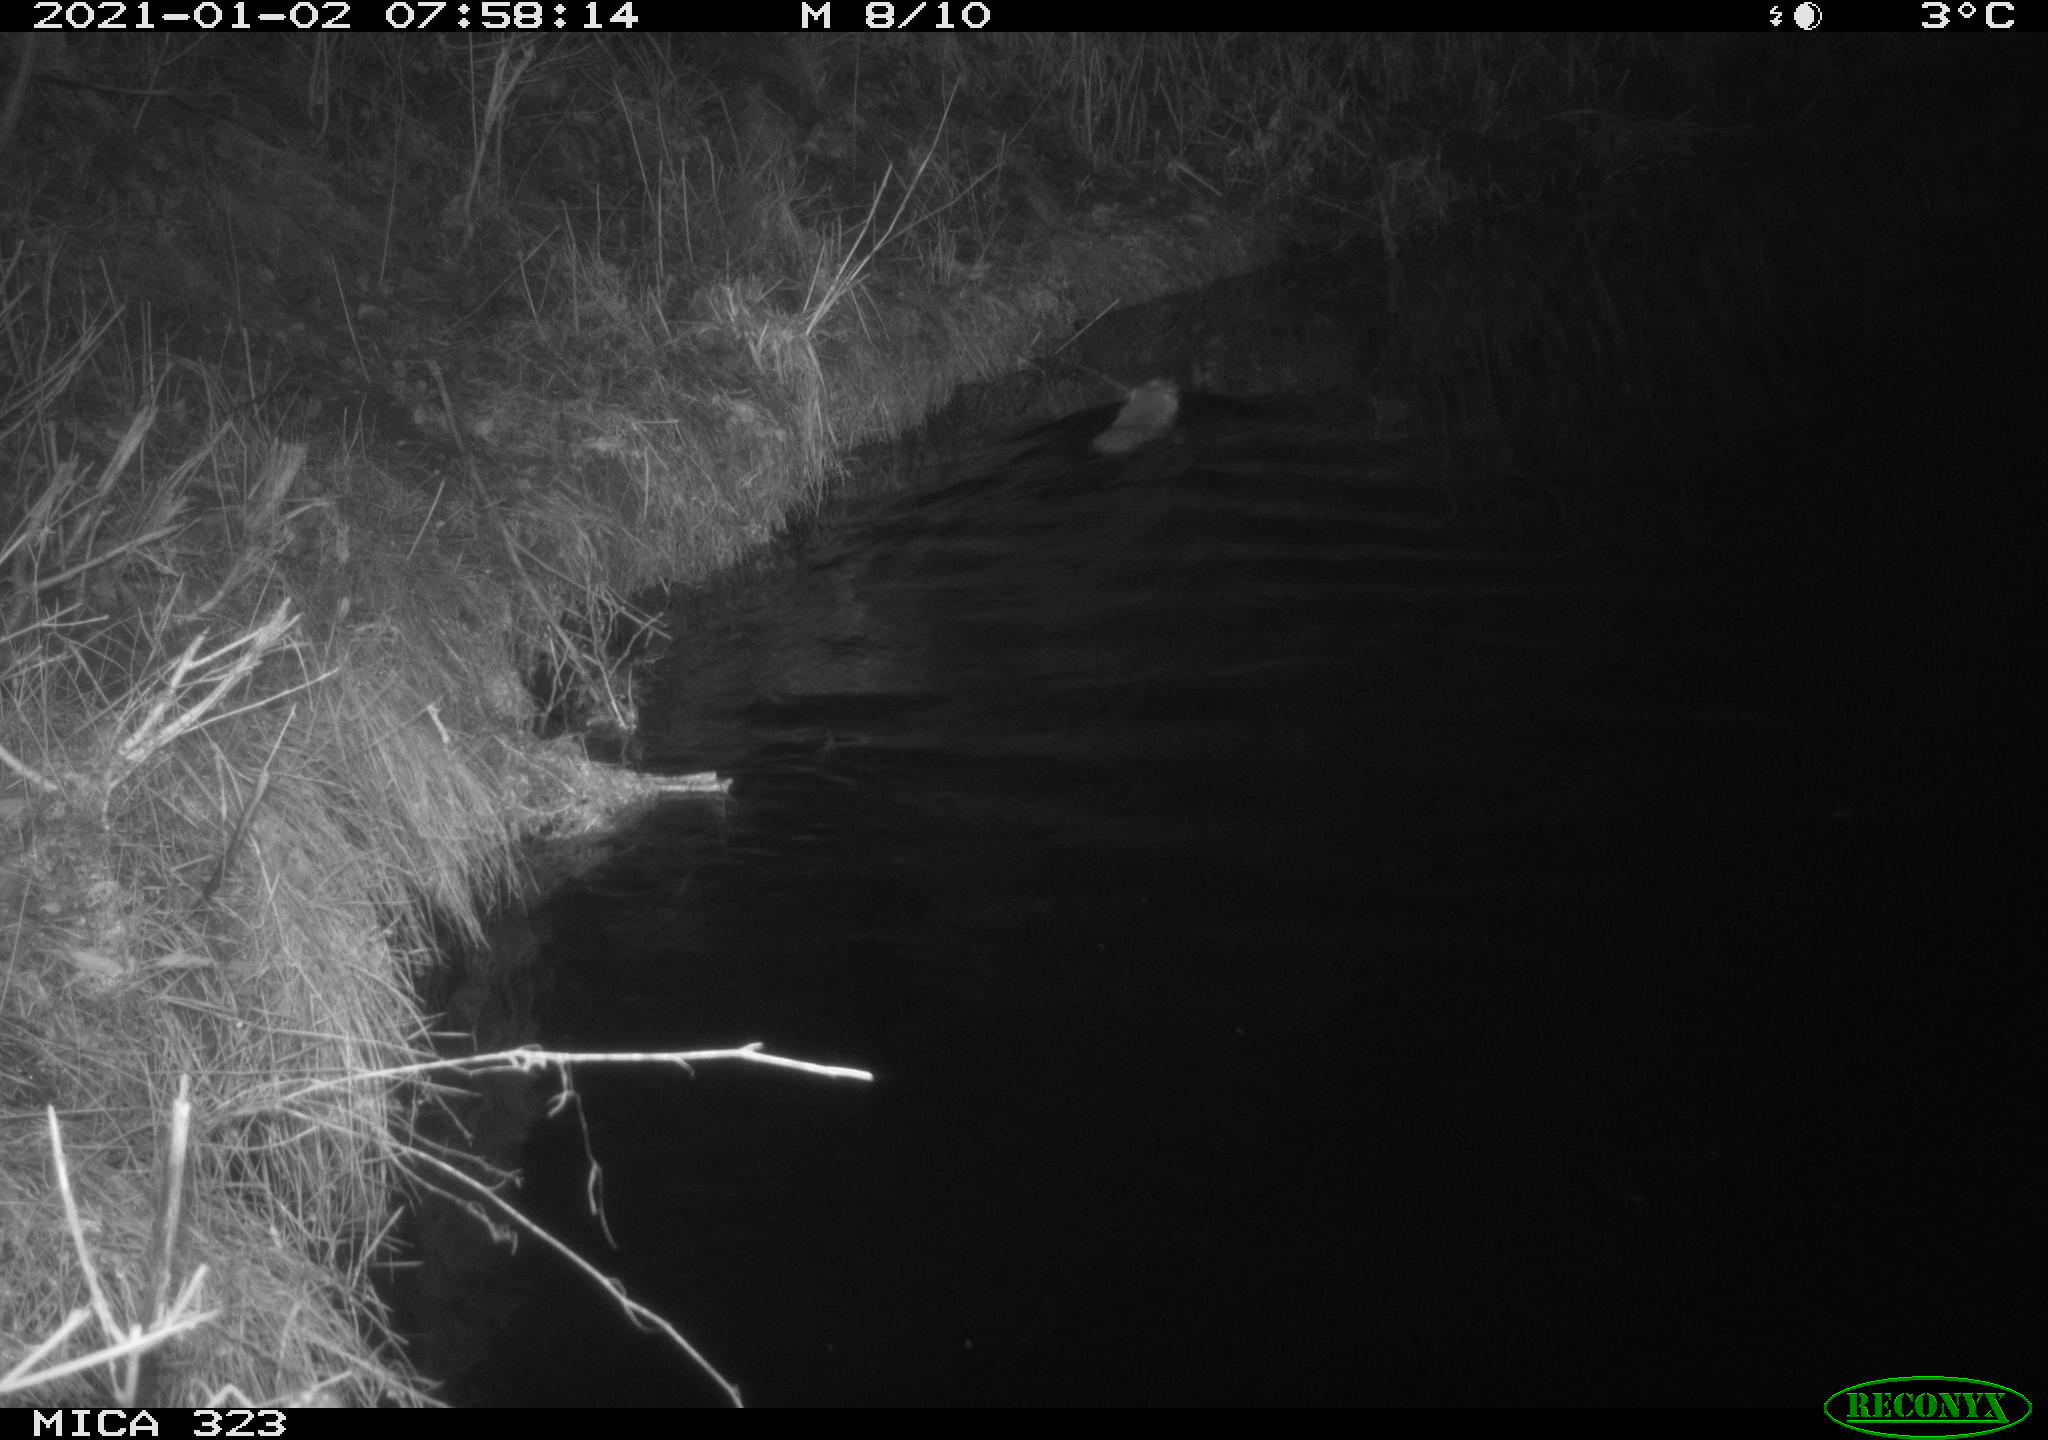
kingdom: Animalia
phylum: Chordata
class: Mammalia
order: Rodentia
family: Myocastoridae
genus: Myocastor
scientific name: Myocastor coypus
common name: Coypu
